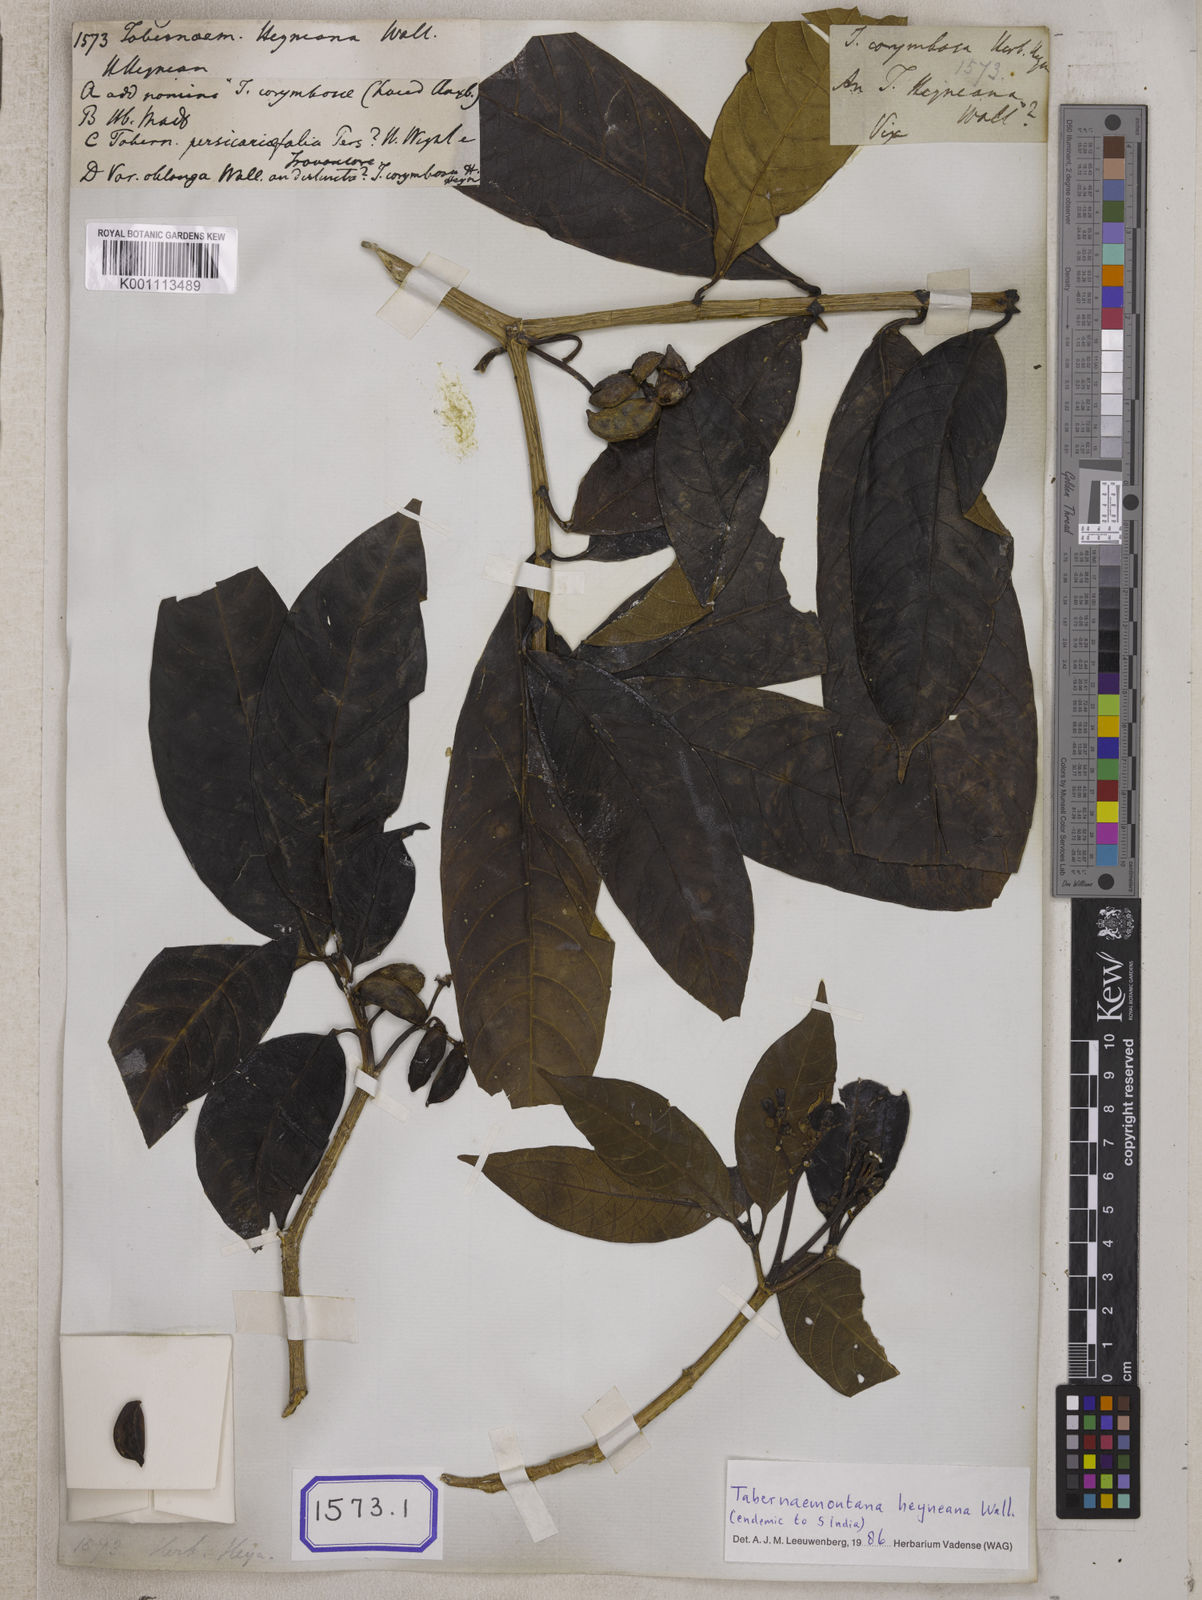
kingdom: Plantae
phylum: Tracheophyta
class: Magnoliopsida
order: Gentianales
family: Apocynaceae
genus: Tabernaemontana
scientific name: Tabernaemontana alternifolia
